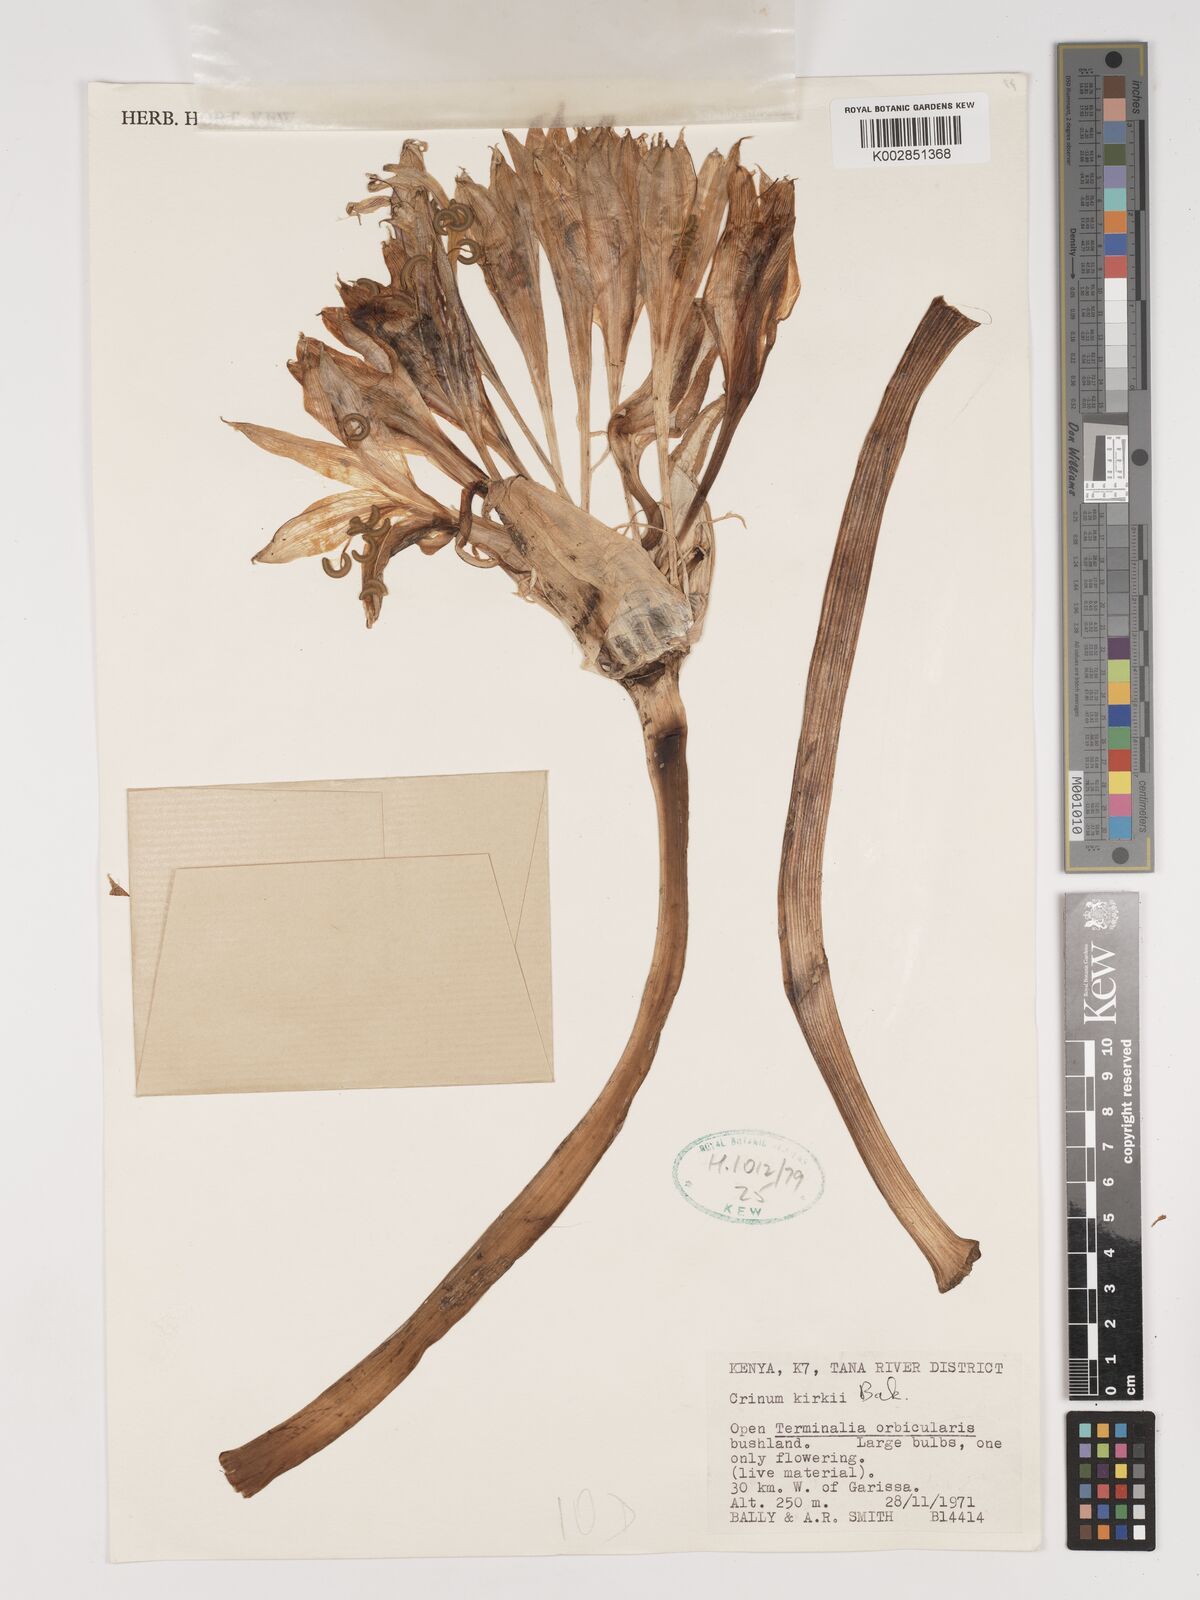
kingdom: Plantae
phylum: Tracheophyta
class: Liliopsida
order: Asparagales
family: Amaryllidaceae
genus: Crinum
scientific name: Crinum kirkii
